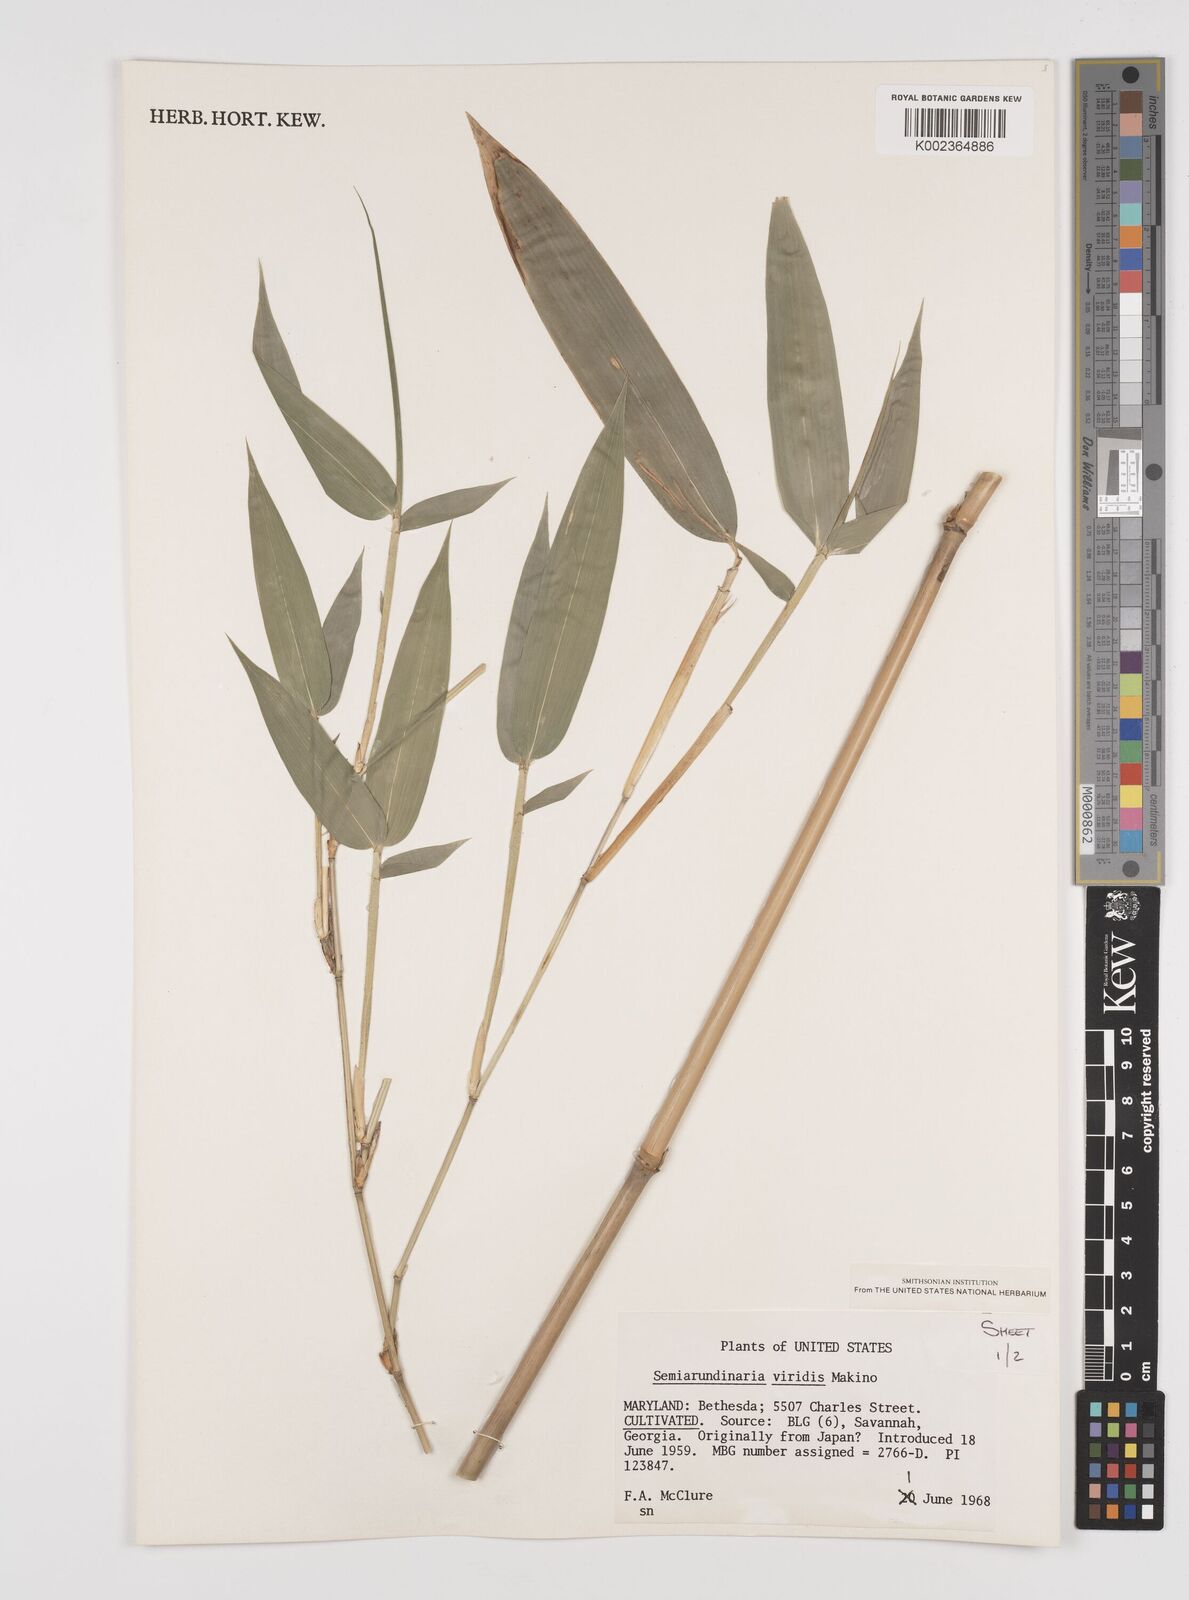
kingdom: Plantae
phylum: Tracheophyta
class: Liliopsida
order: Poales
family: Poaceae
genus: Semiarundinaria
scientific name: Semiarundinaria fastuosa
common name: Narihira bamboo
